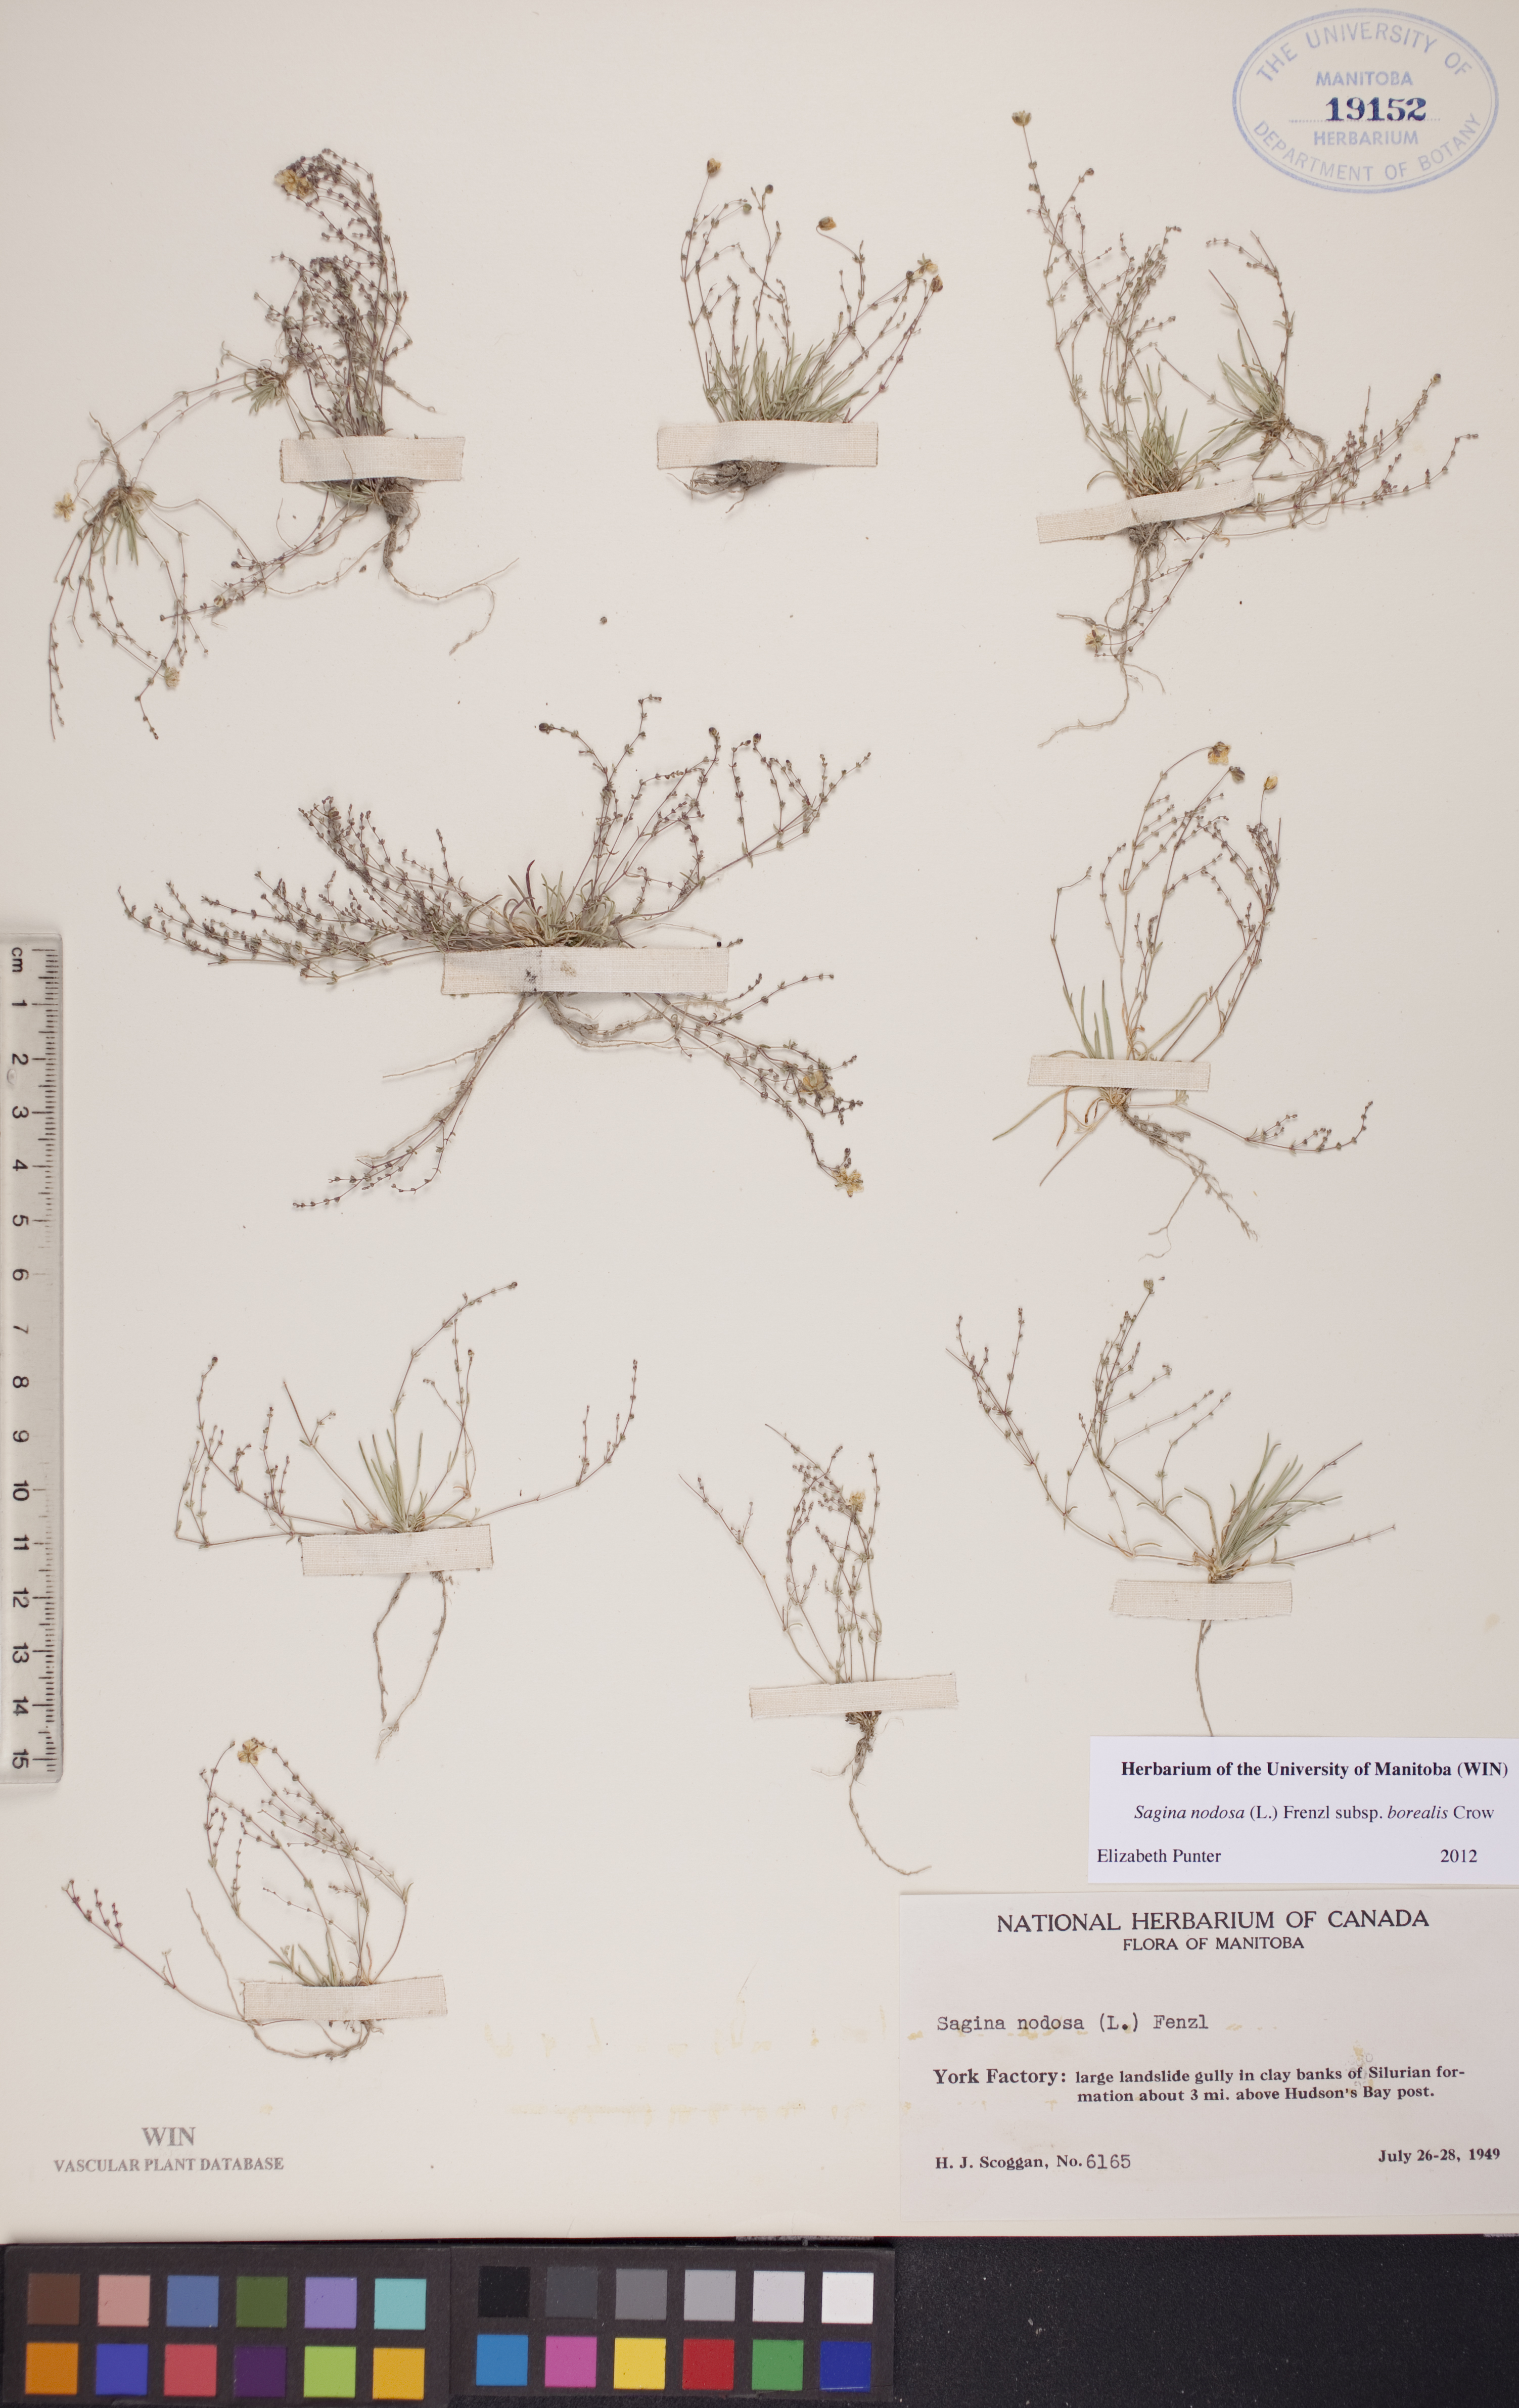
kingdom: Plantae
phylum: Tracheophyta
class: Magnoliopsida
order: Caryophyllales
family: Caryophyllaceae
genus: Sagina
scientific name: Sagina nodosa
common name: Knotted pearlwort
